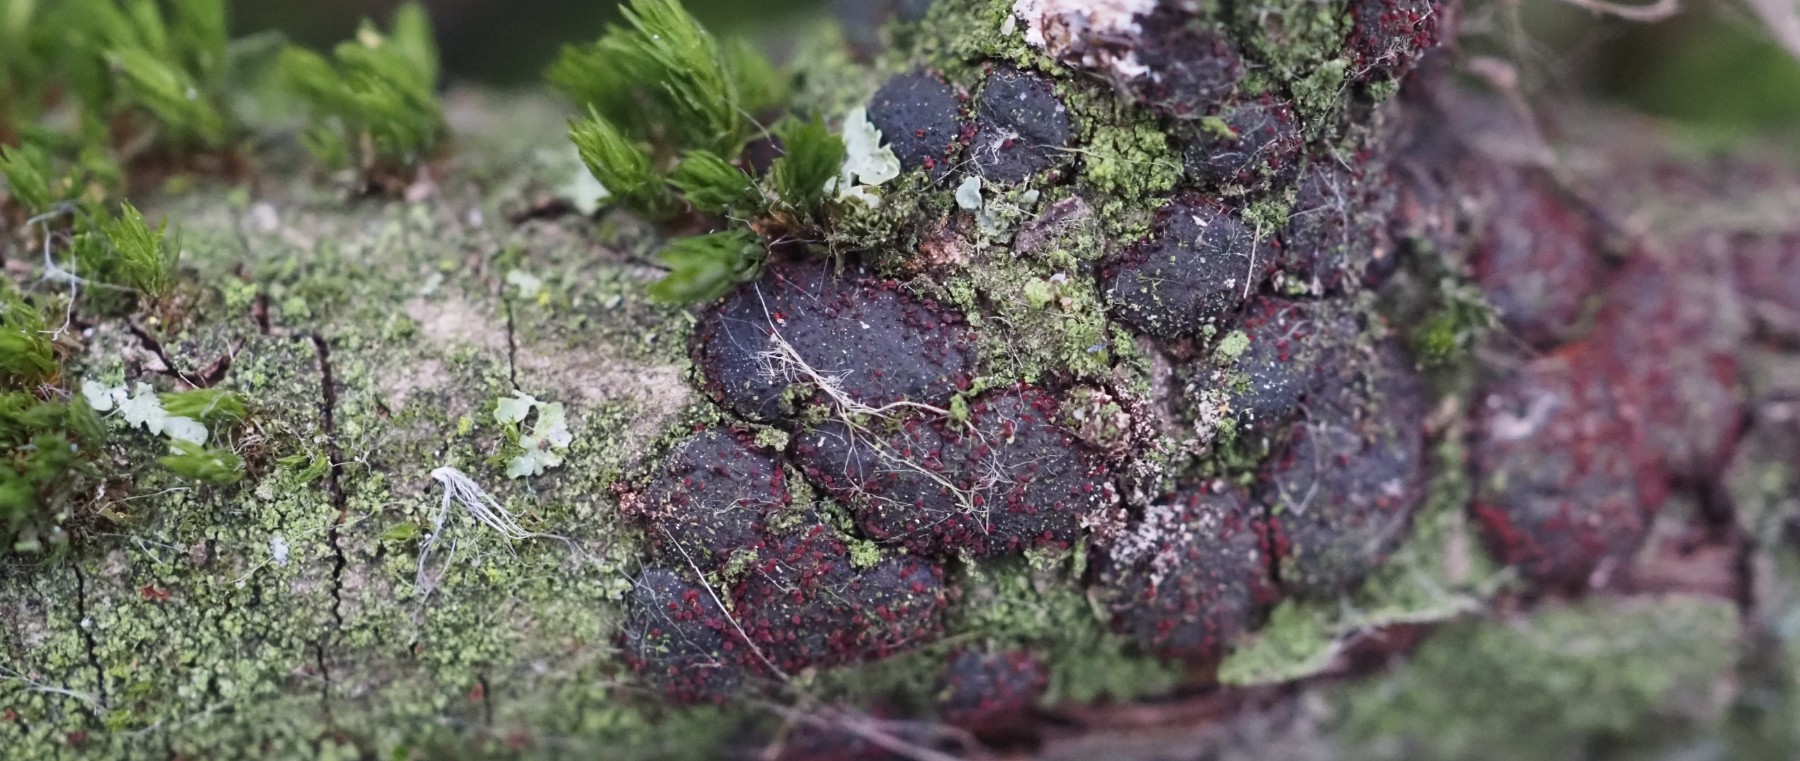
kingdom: Fungi
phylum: Ascomycota
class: Sordariomycetes
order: Hypocreales
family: Nectriaceae
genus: Dialonectria
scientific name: Dialonectria diatrypicola
